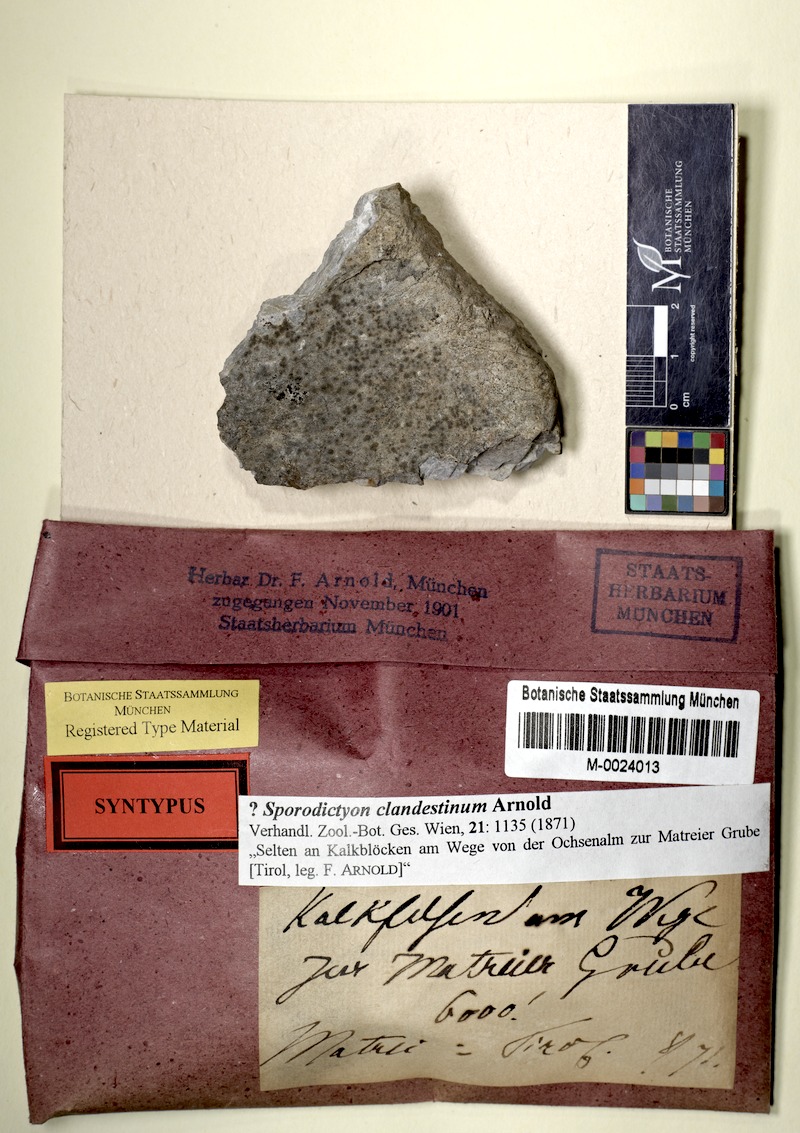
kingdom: Fungi
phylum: Ascomycota
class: Eurotiomycetes
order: Verrucariales
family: Verrucariaceae
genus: Sporodictyon
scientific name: Sporodictyon clandestinum
